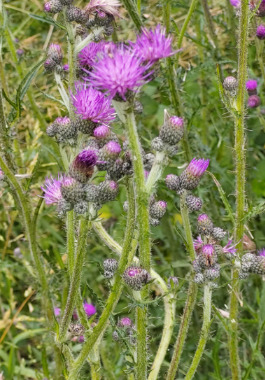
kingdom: Plantae
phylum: Tracheophyta
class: Magnoliopsida
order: Asterales
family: Asteraceae
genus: Cirsium
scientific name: Cirsium palustre
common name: Kær-tidsel
